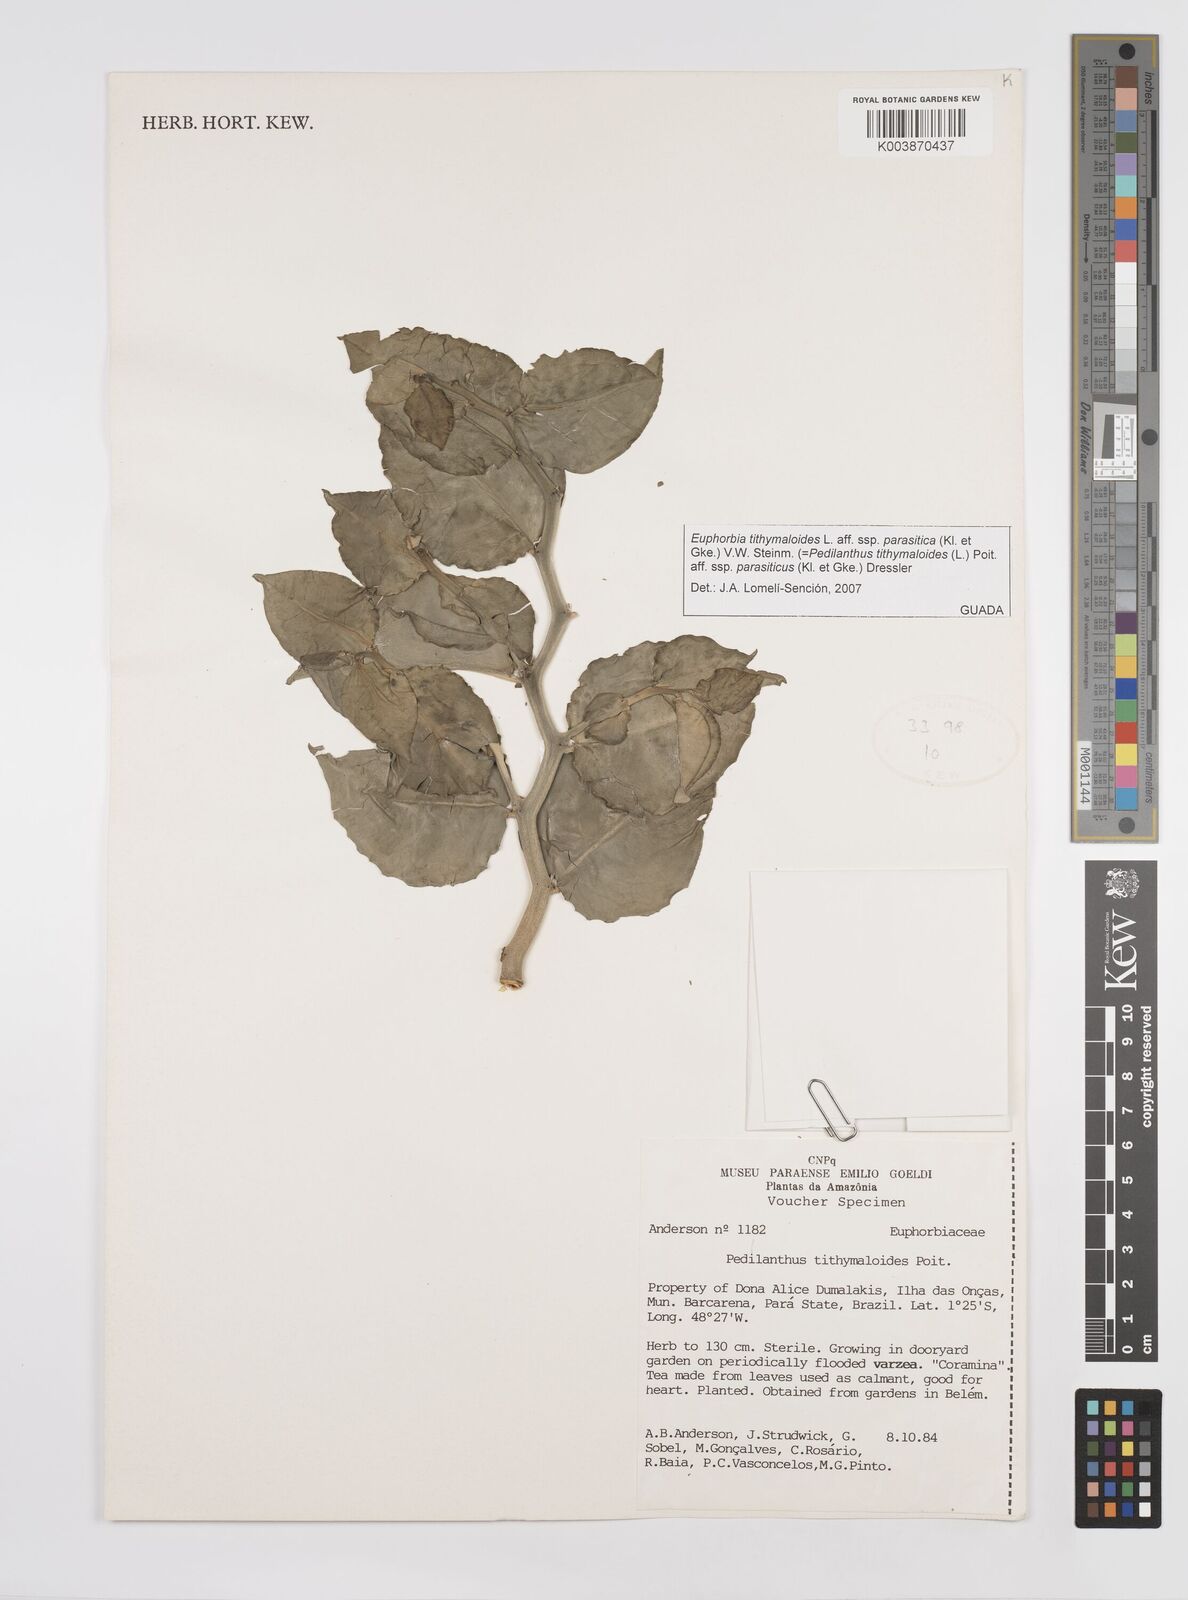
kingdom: Plantae
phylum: Tracheophyta
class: Magnoliopsida
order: Malpighiales
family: Euphorbiaceae
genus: Euphorbia
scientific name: Euphorbia tithymaloides
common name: Slipperplant
